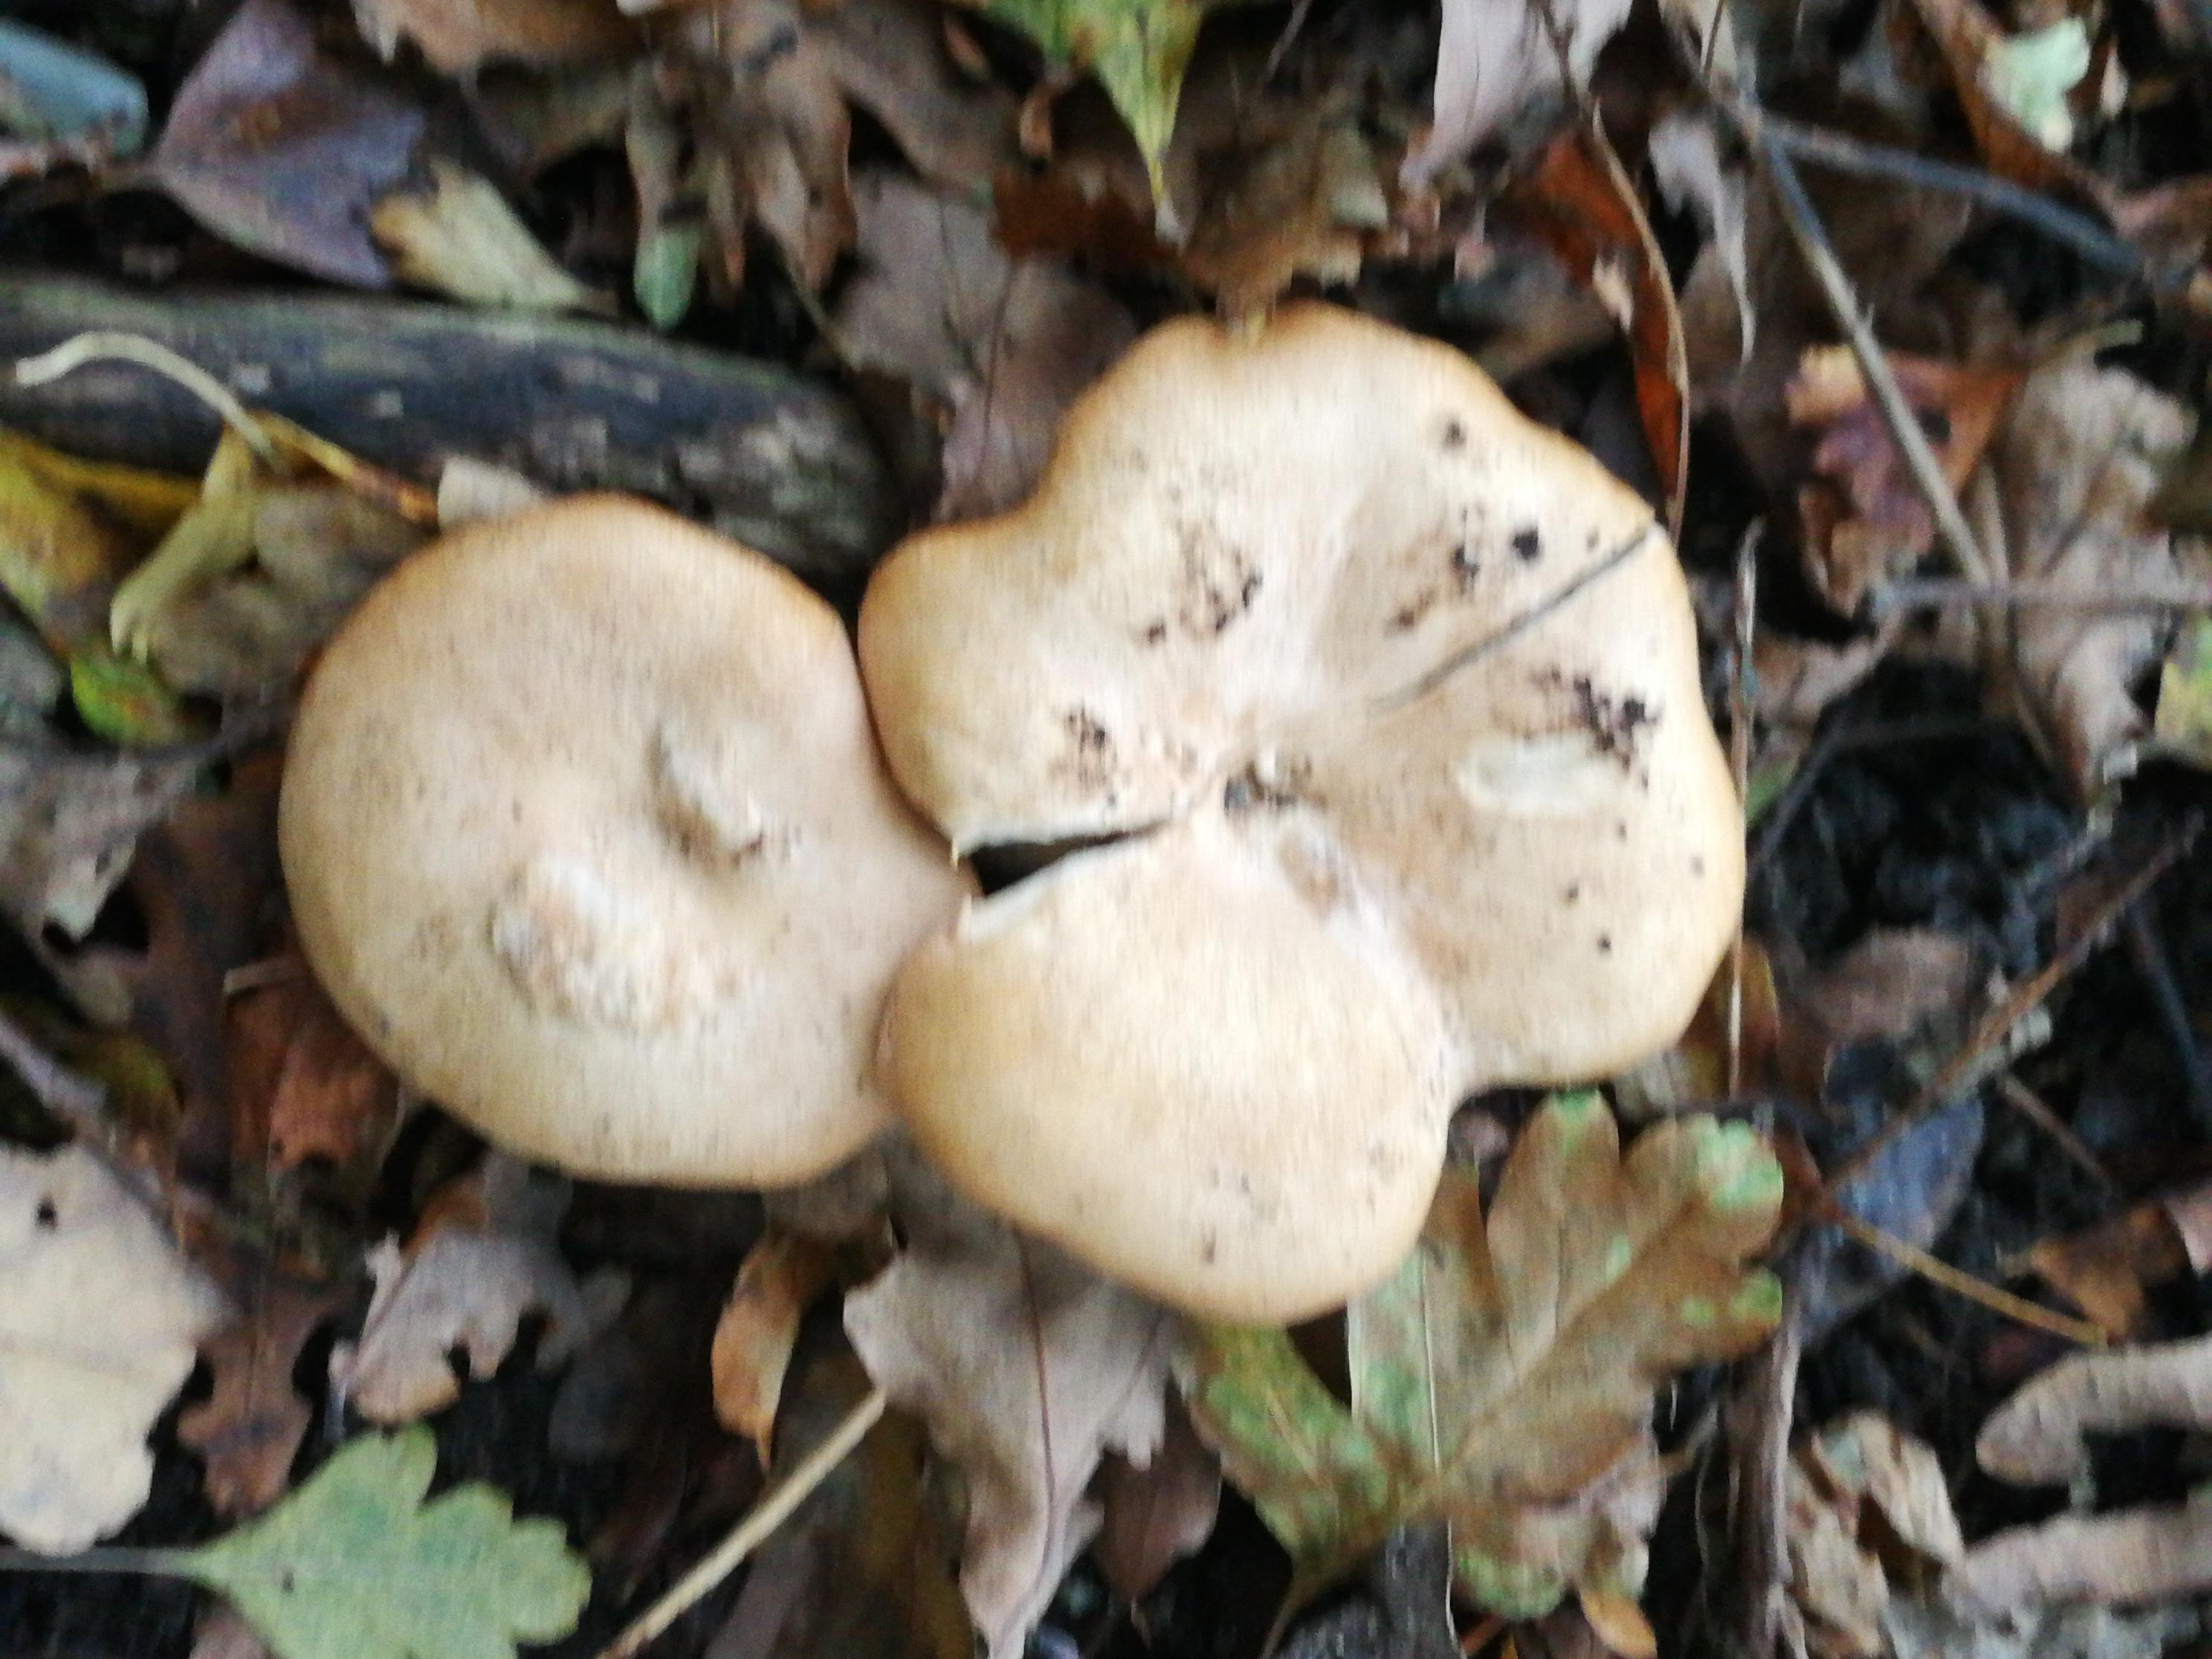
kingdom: Fungi
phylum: Basidiomycota
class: Agaricomycetes
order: Agaricales
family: Tricholomataceae
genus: Paralepista
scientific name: Paralepista
